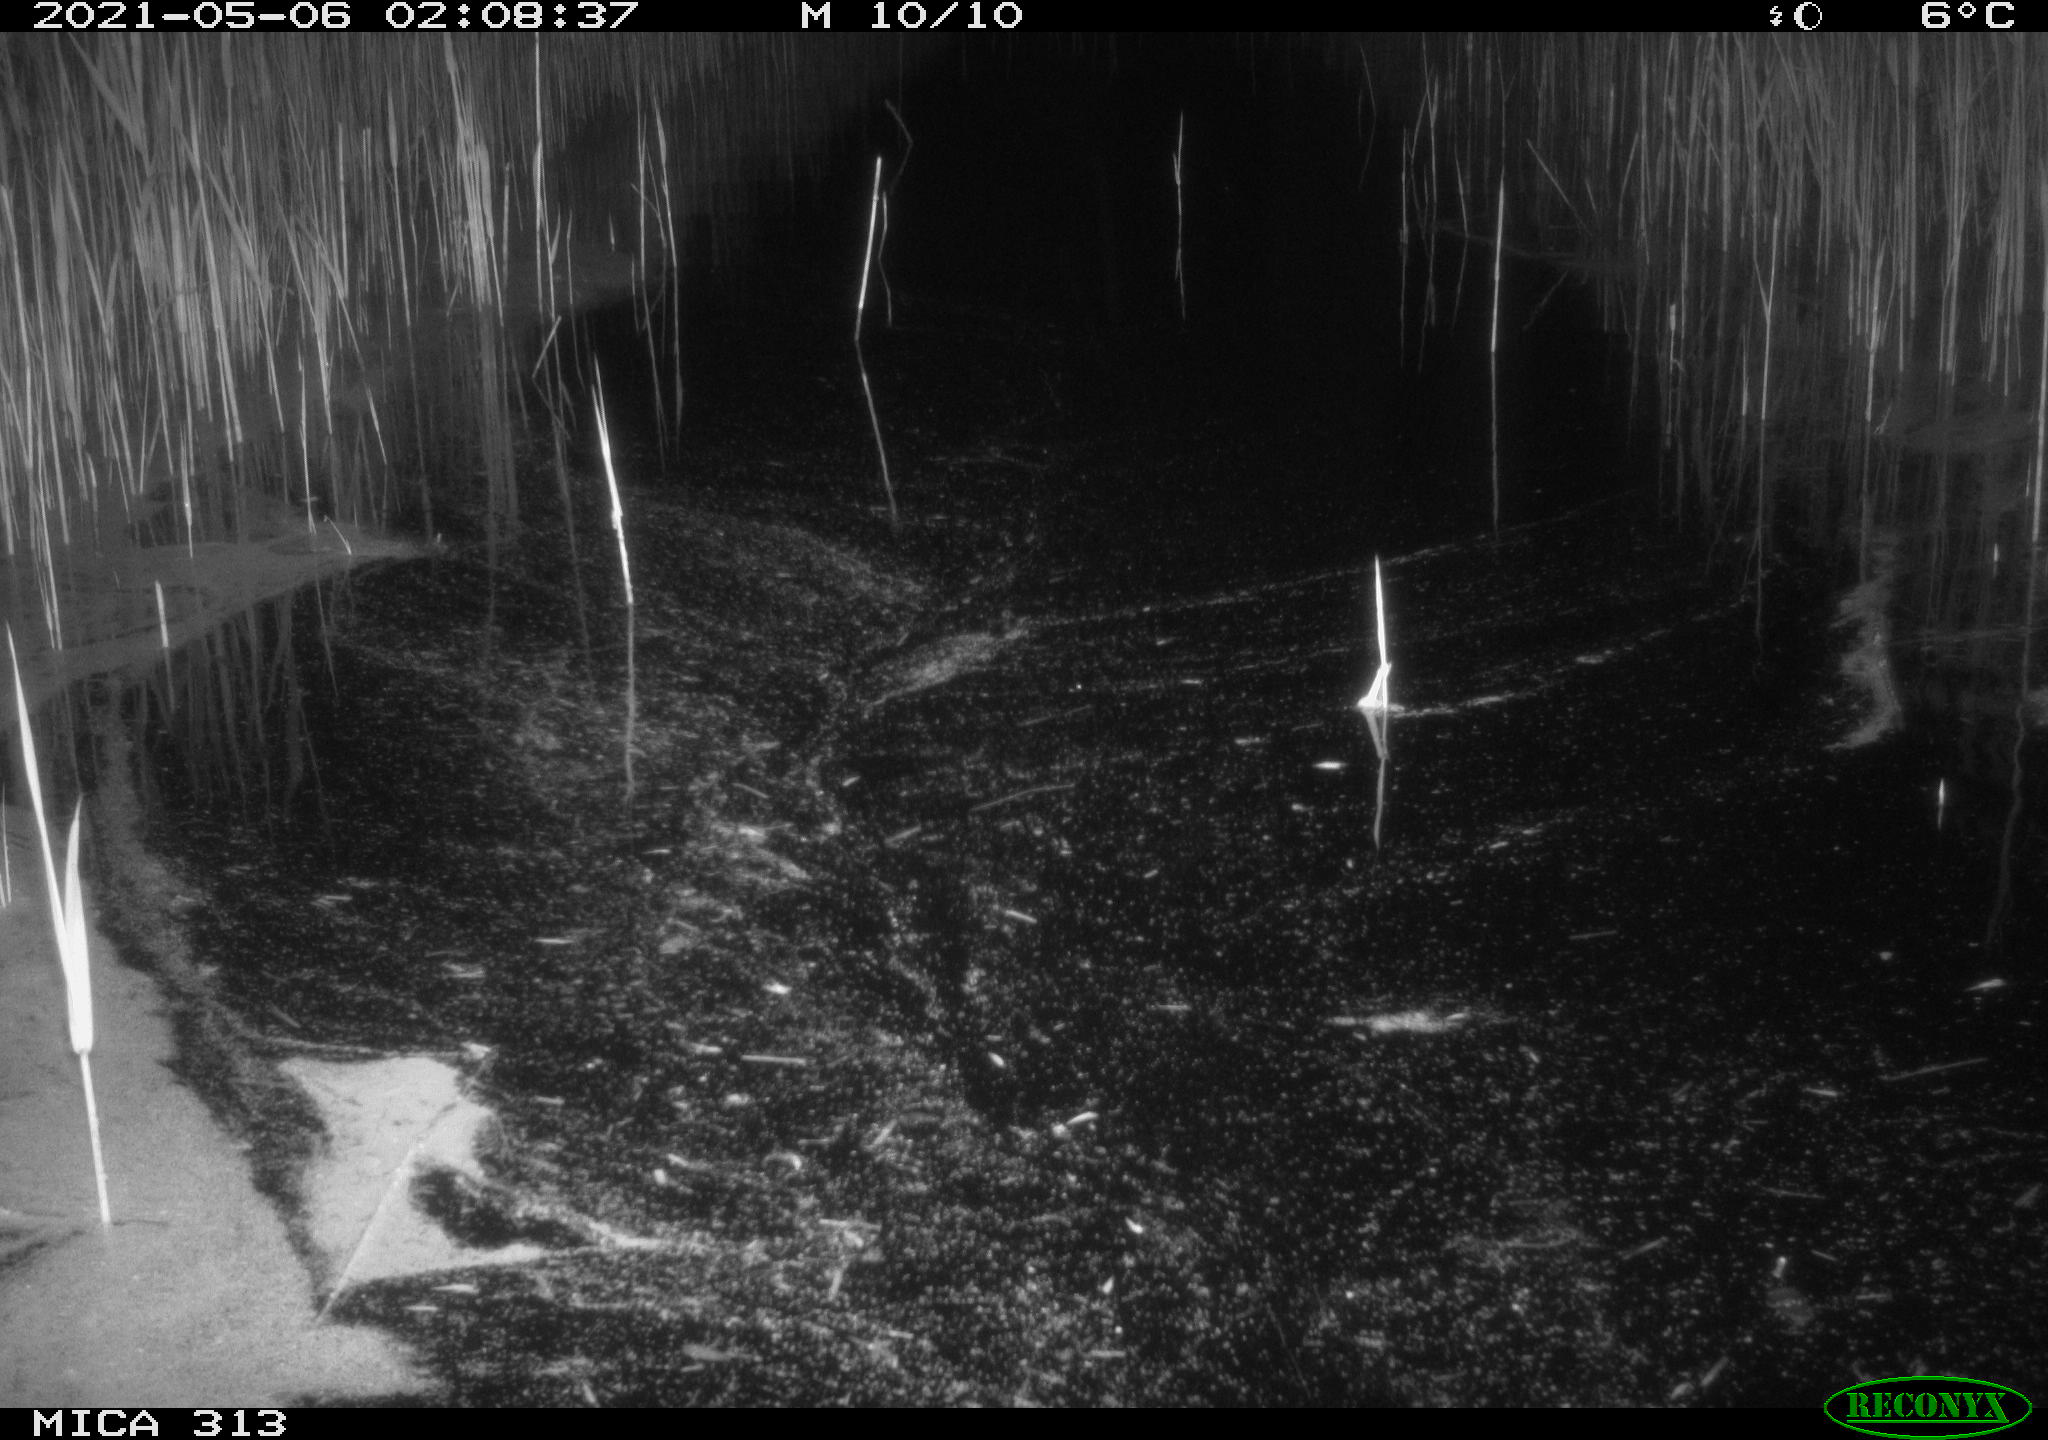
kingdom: Animalia
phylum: Chordata
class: Aves
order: Anseriformes
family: Anatidae
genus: Mareca
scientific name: Mareca strepera
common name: Gadwall
